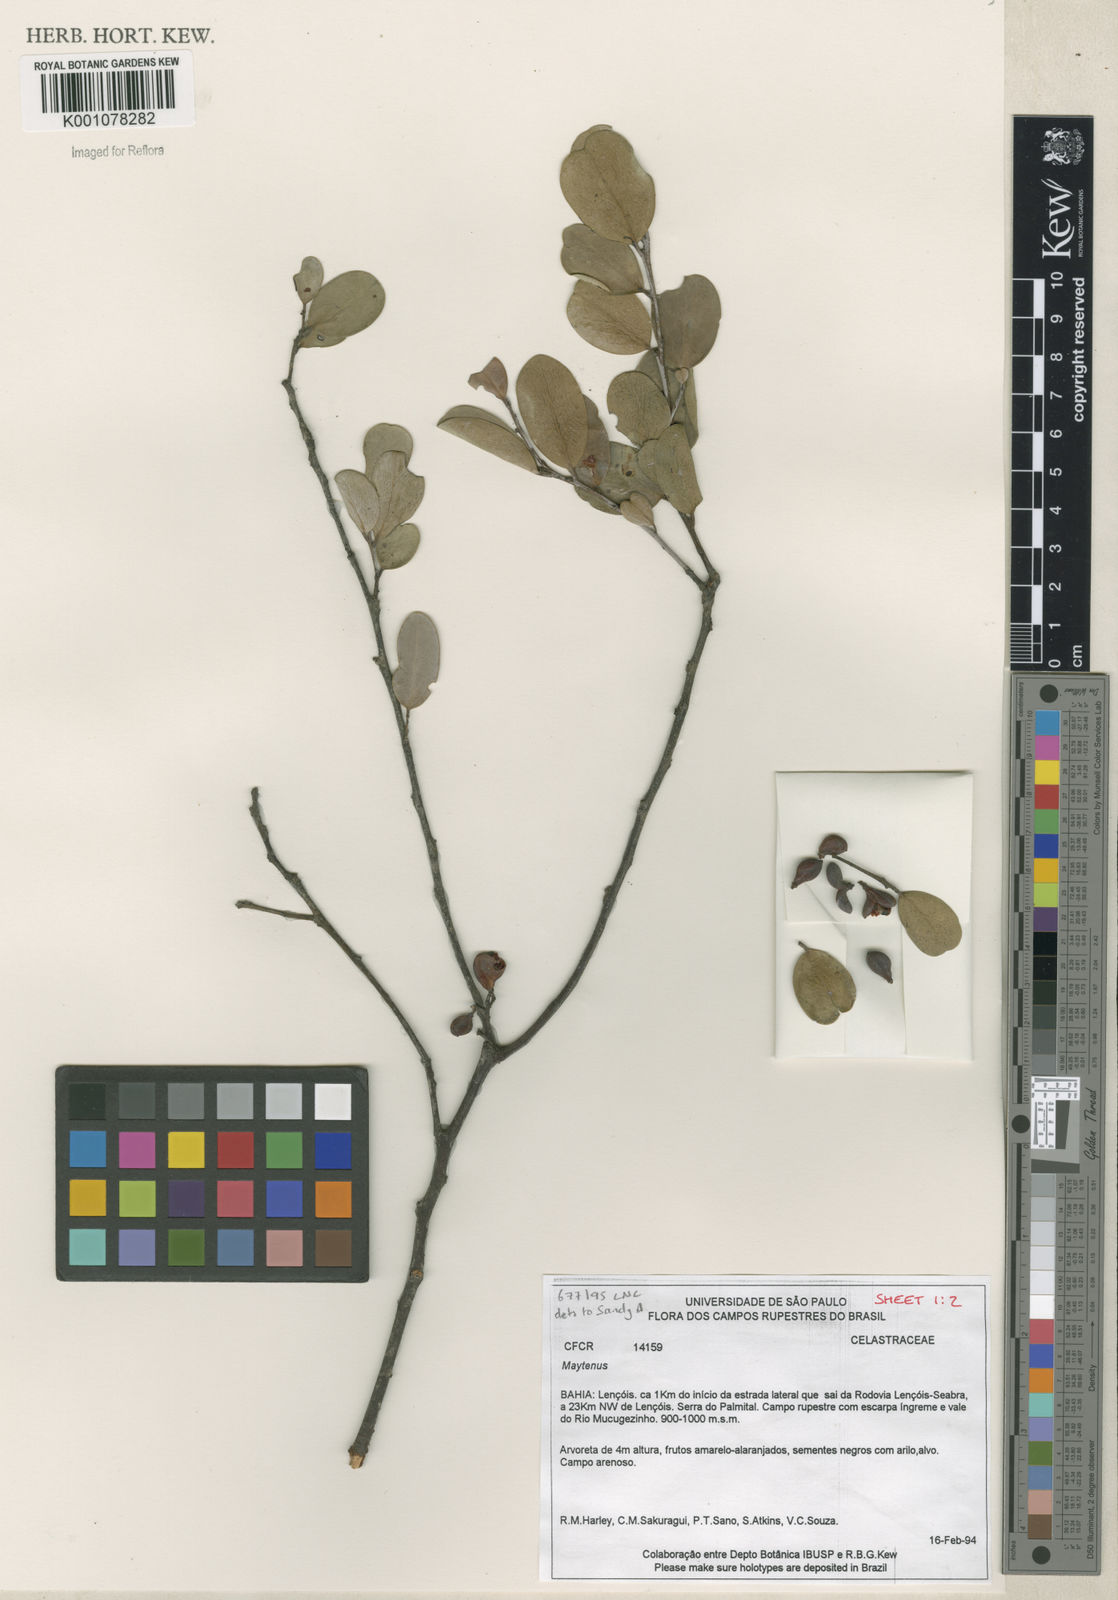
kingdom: Plantae
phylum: Tracheophyta
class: Magnoliopsida
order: Celastrales
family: Celastraceae
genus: Maytenus
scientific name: Maytenus
